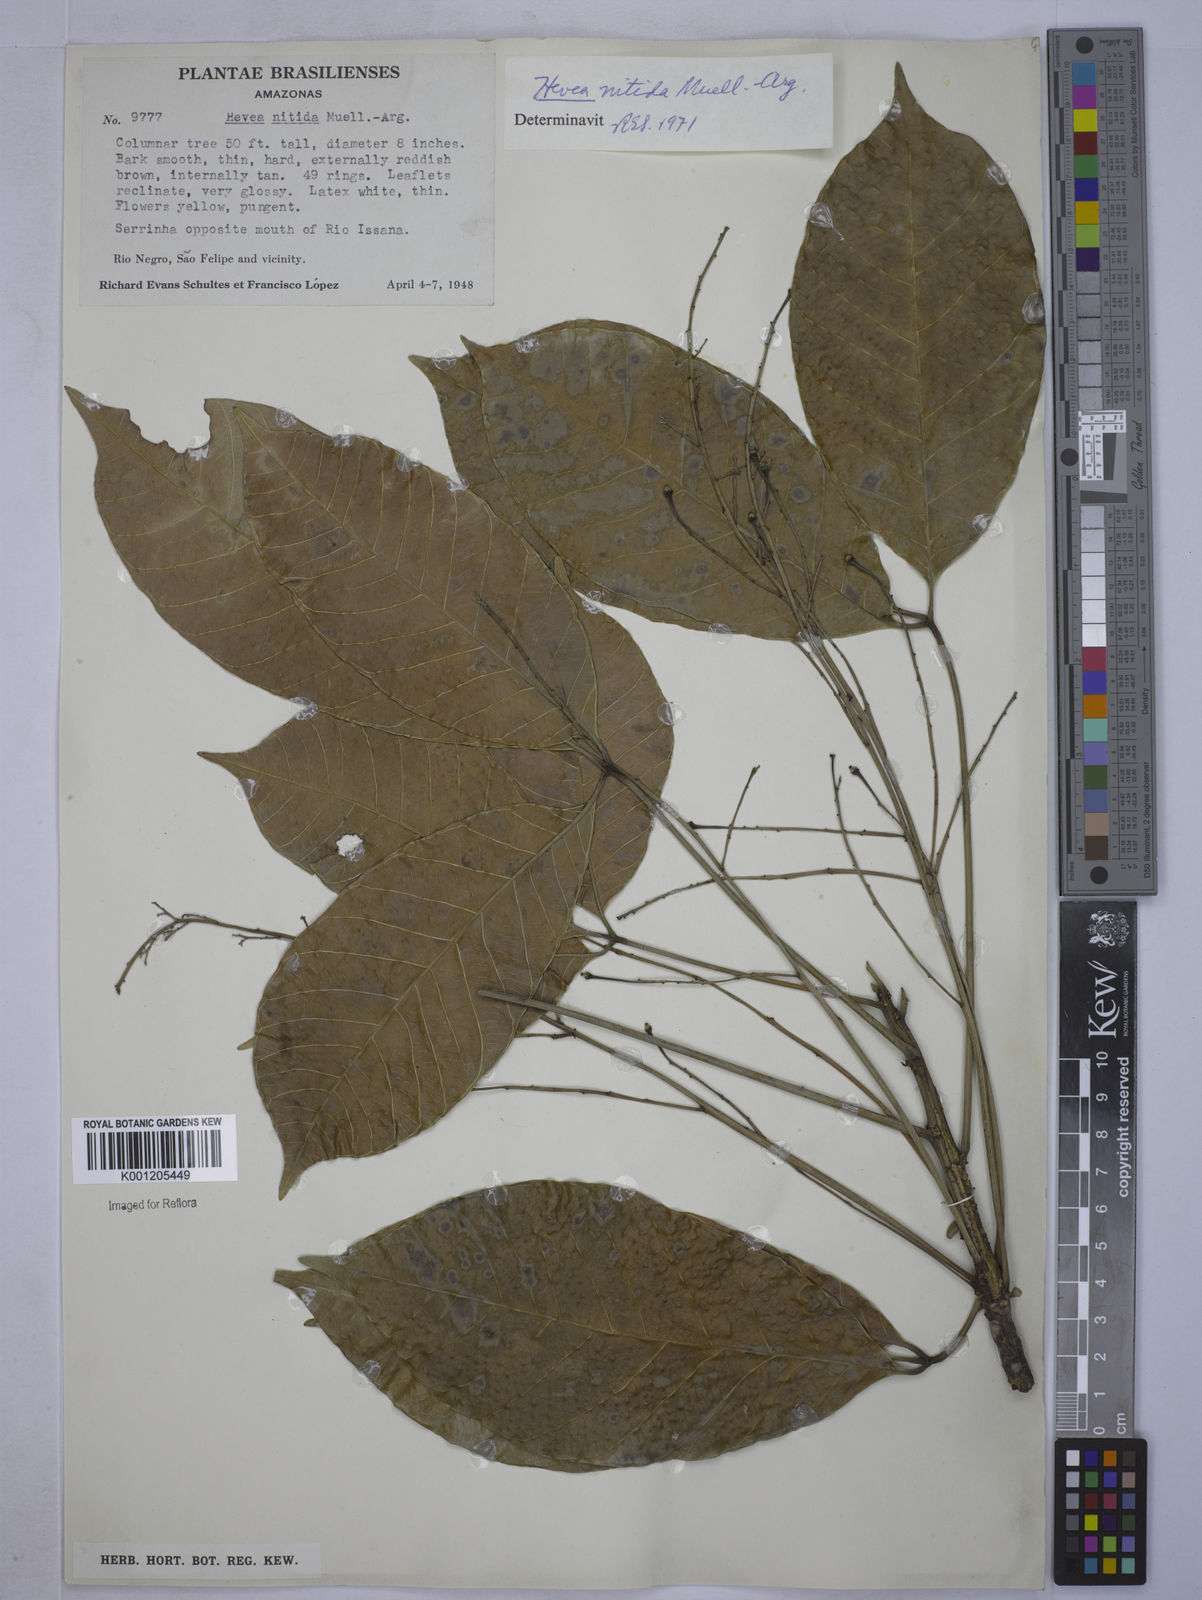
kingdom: Plantae
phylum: Tracheophyta
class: Magnoliopsida
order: Malpighiales
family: Euphorbiaceae
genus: Hevea
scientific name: Hevea
